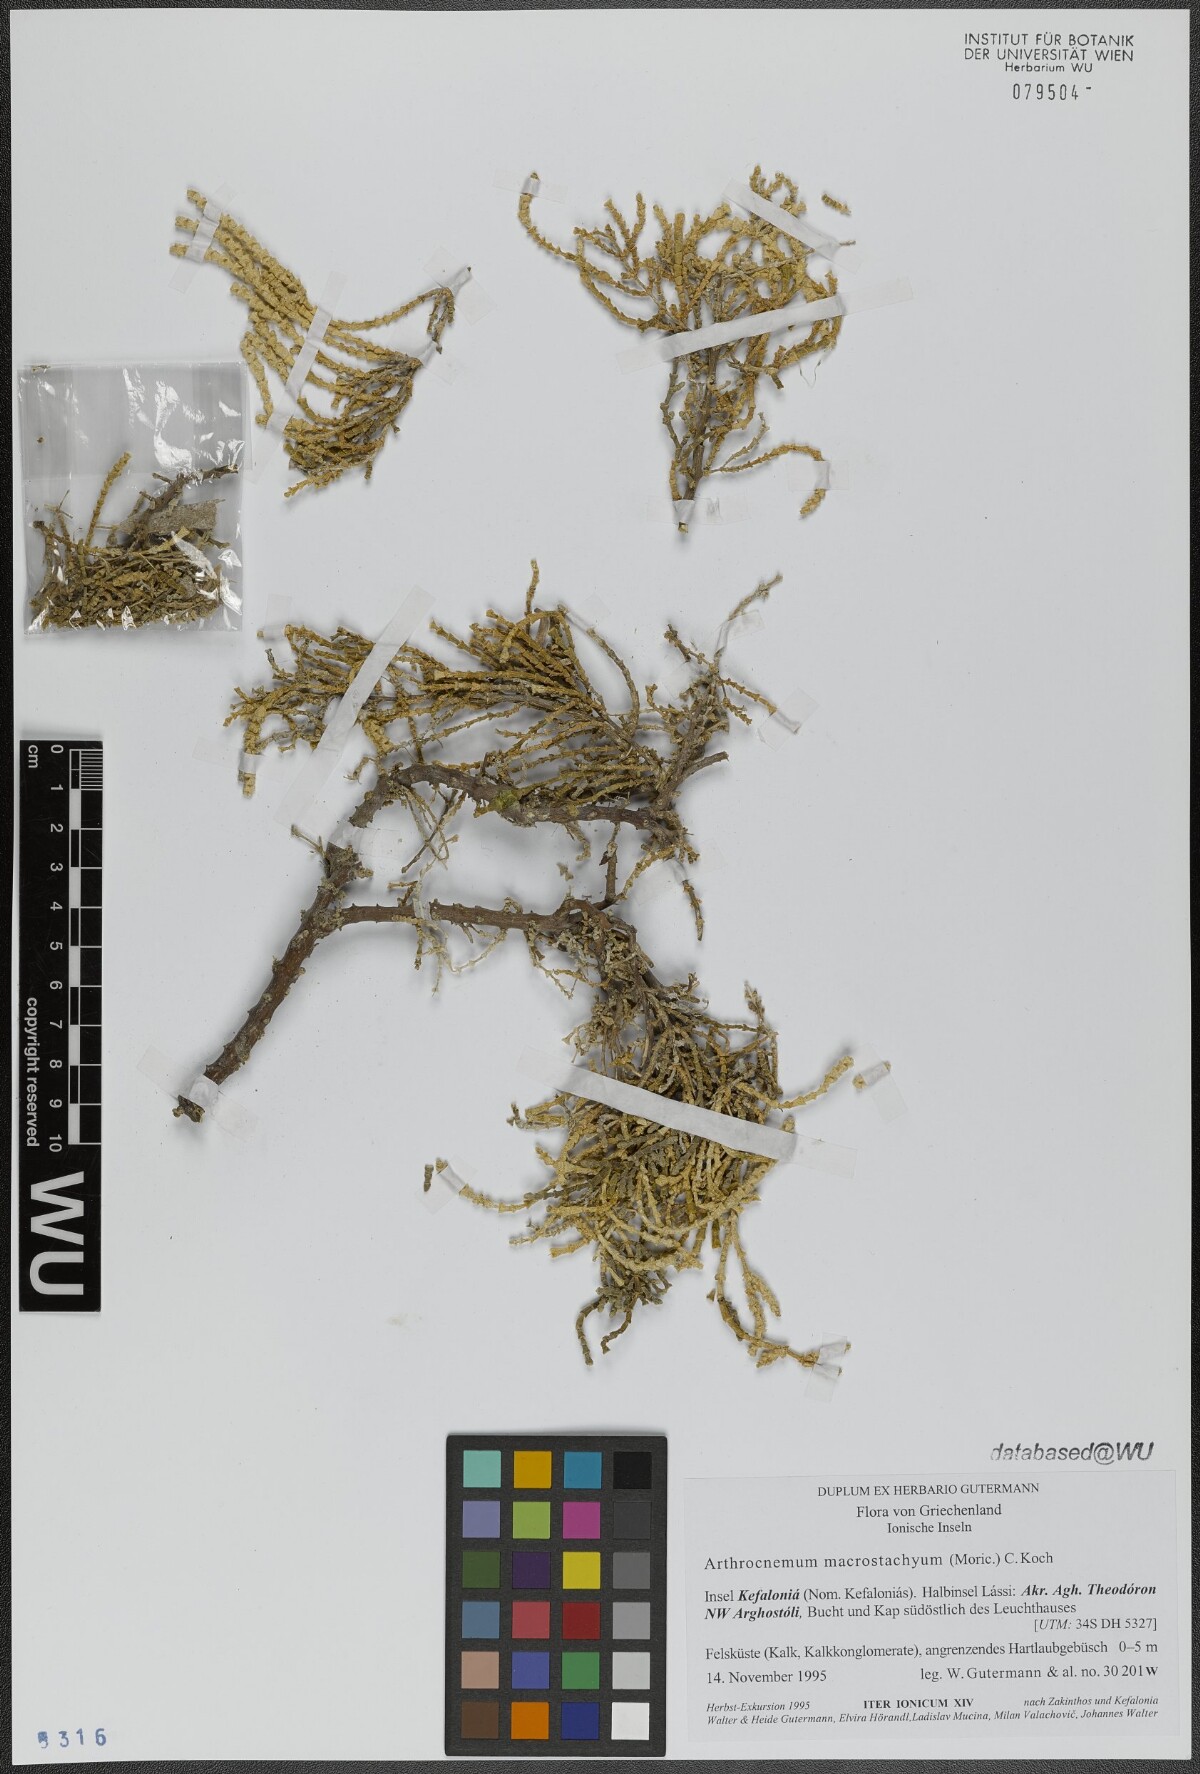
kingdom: Plantae
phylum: Tracheophyta
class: Magnoliopsida
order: Caryophyllales
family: Amaranthaceae
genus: Arthrocaulon
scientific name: Arthrocaulon macrostachyum
